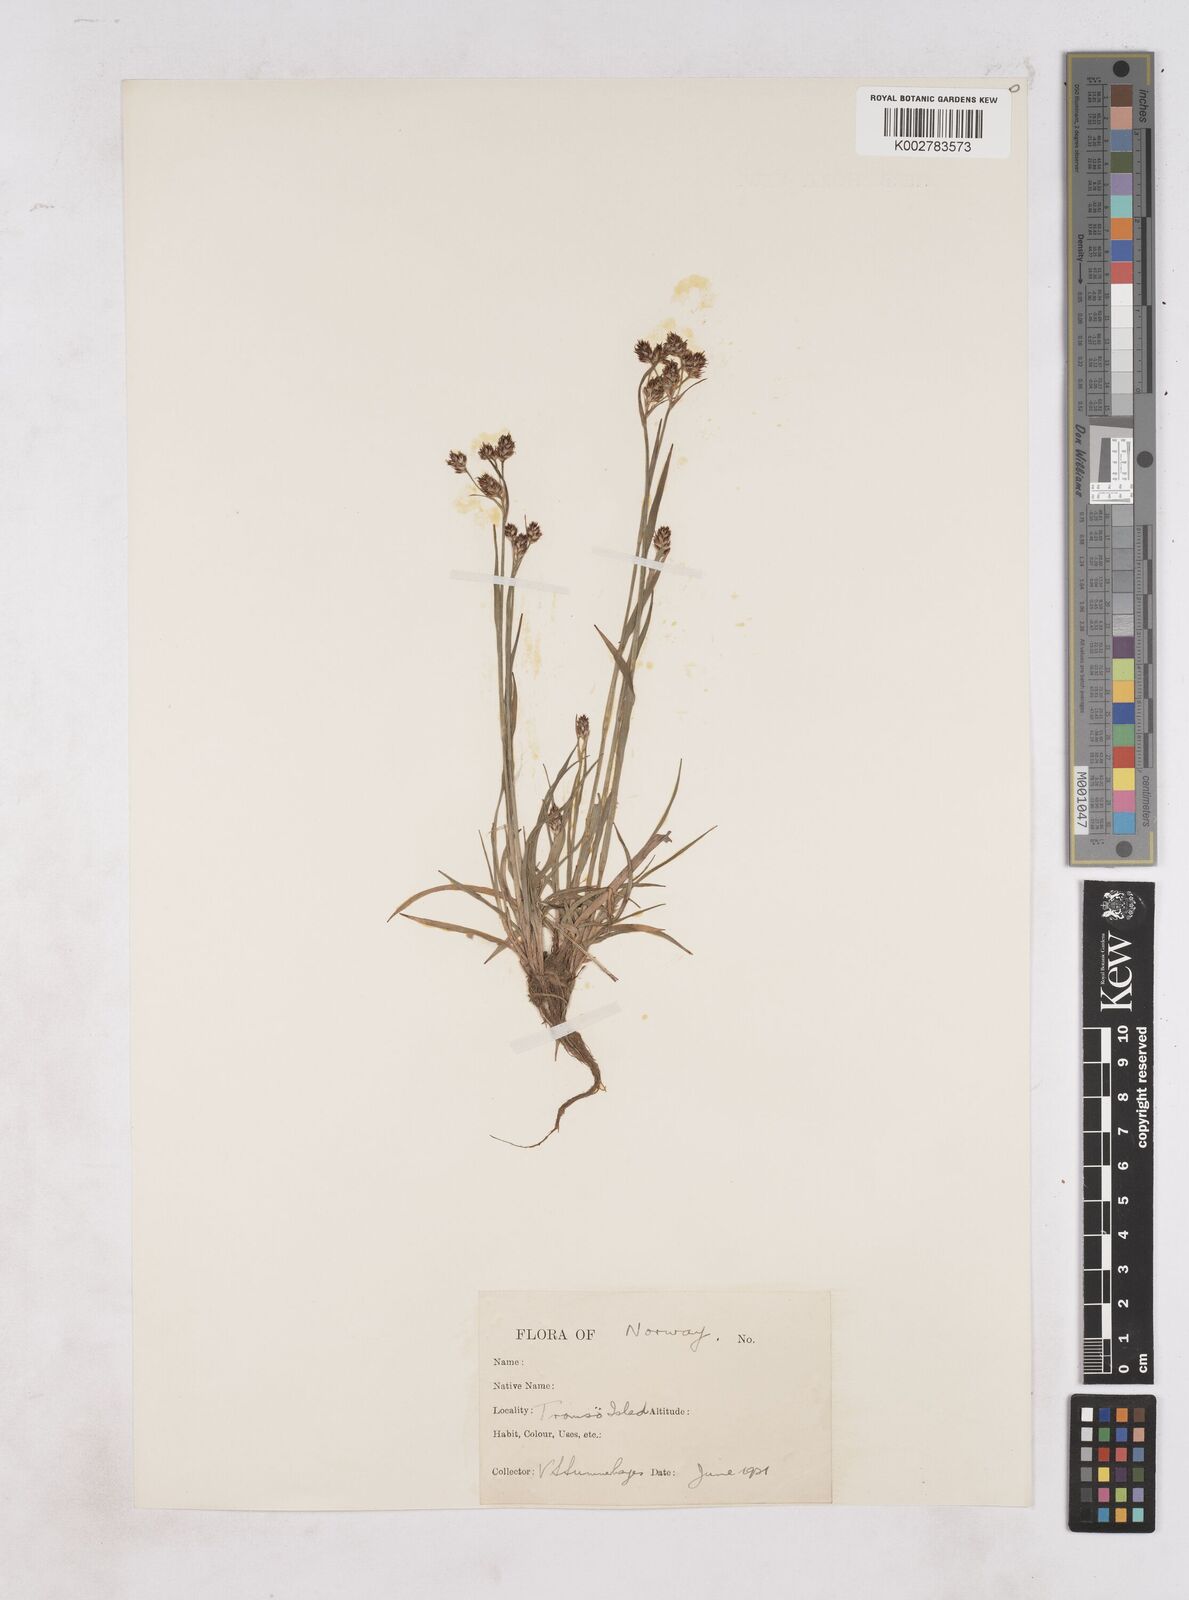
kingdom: Plantae
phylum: Tracheophyta
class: Liliopsida
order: Poales
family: Juncaceae
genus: Luzula
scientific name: Luzula
